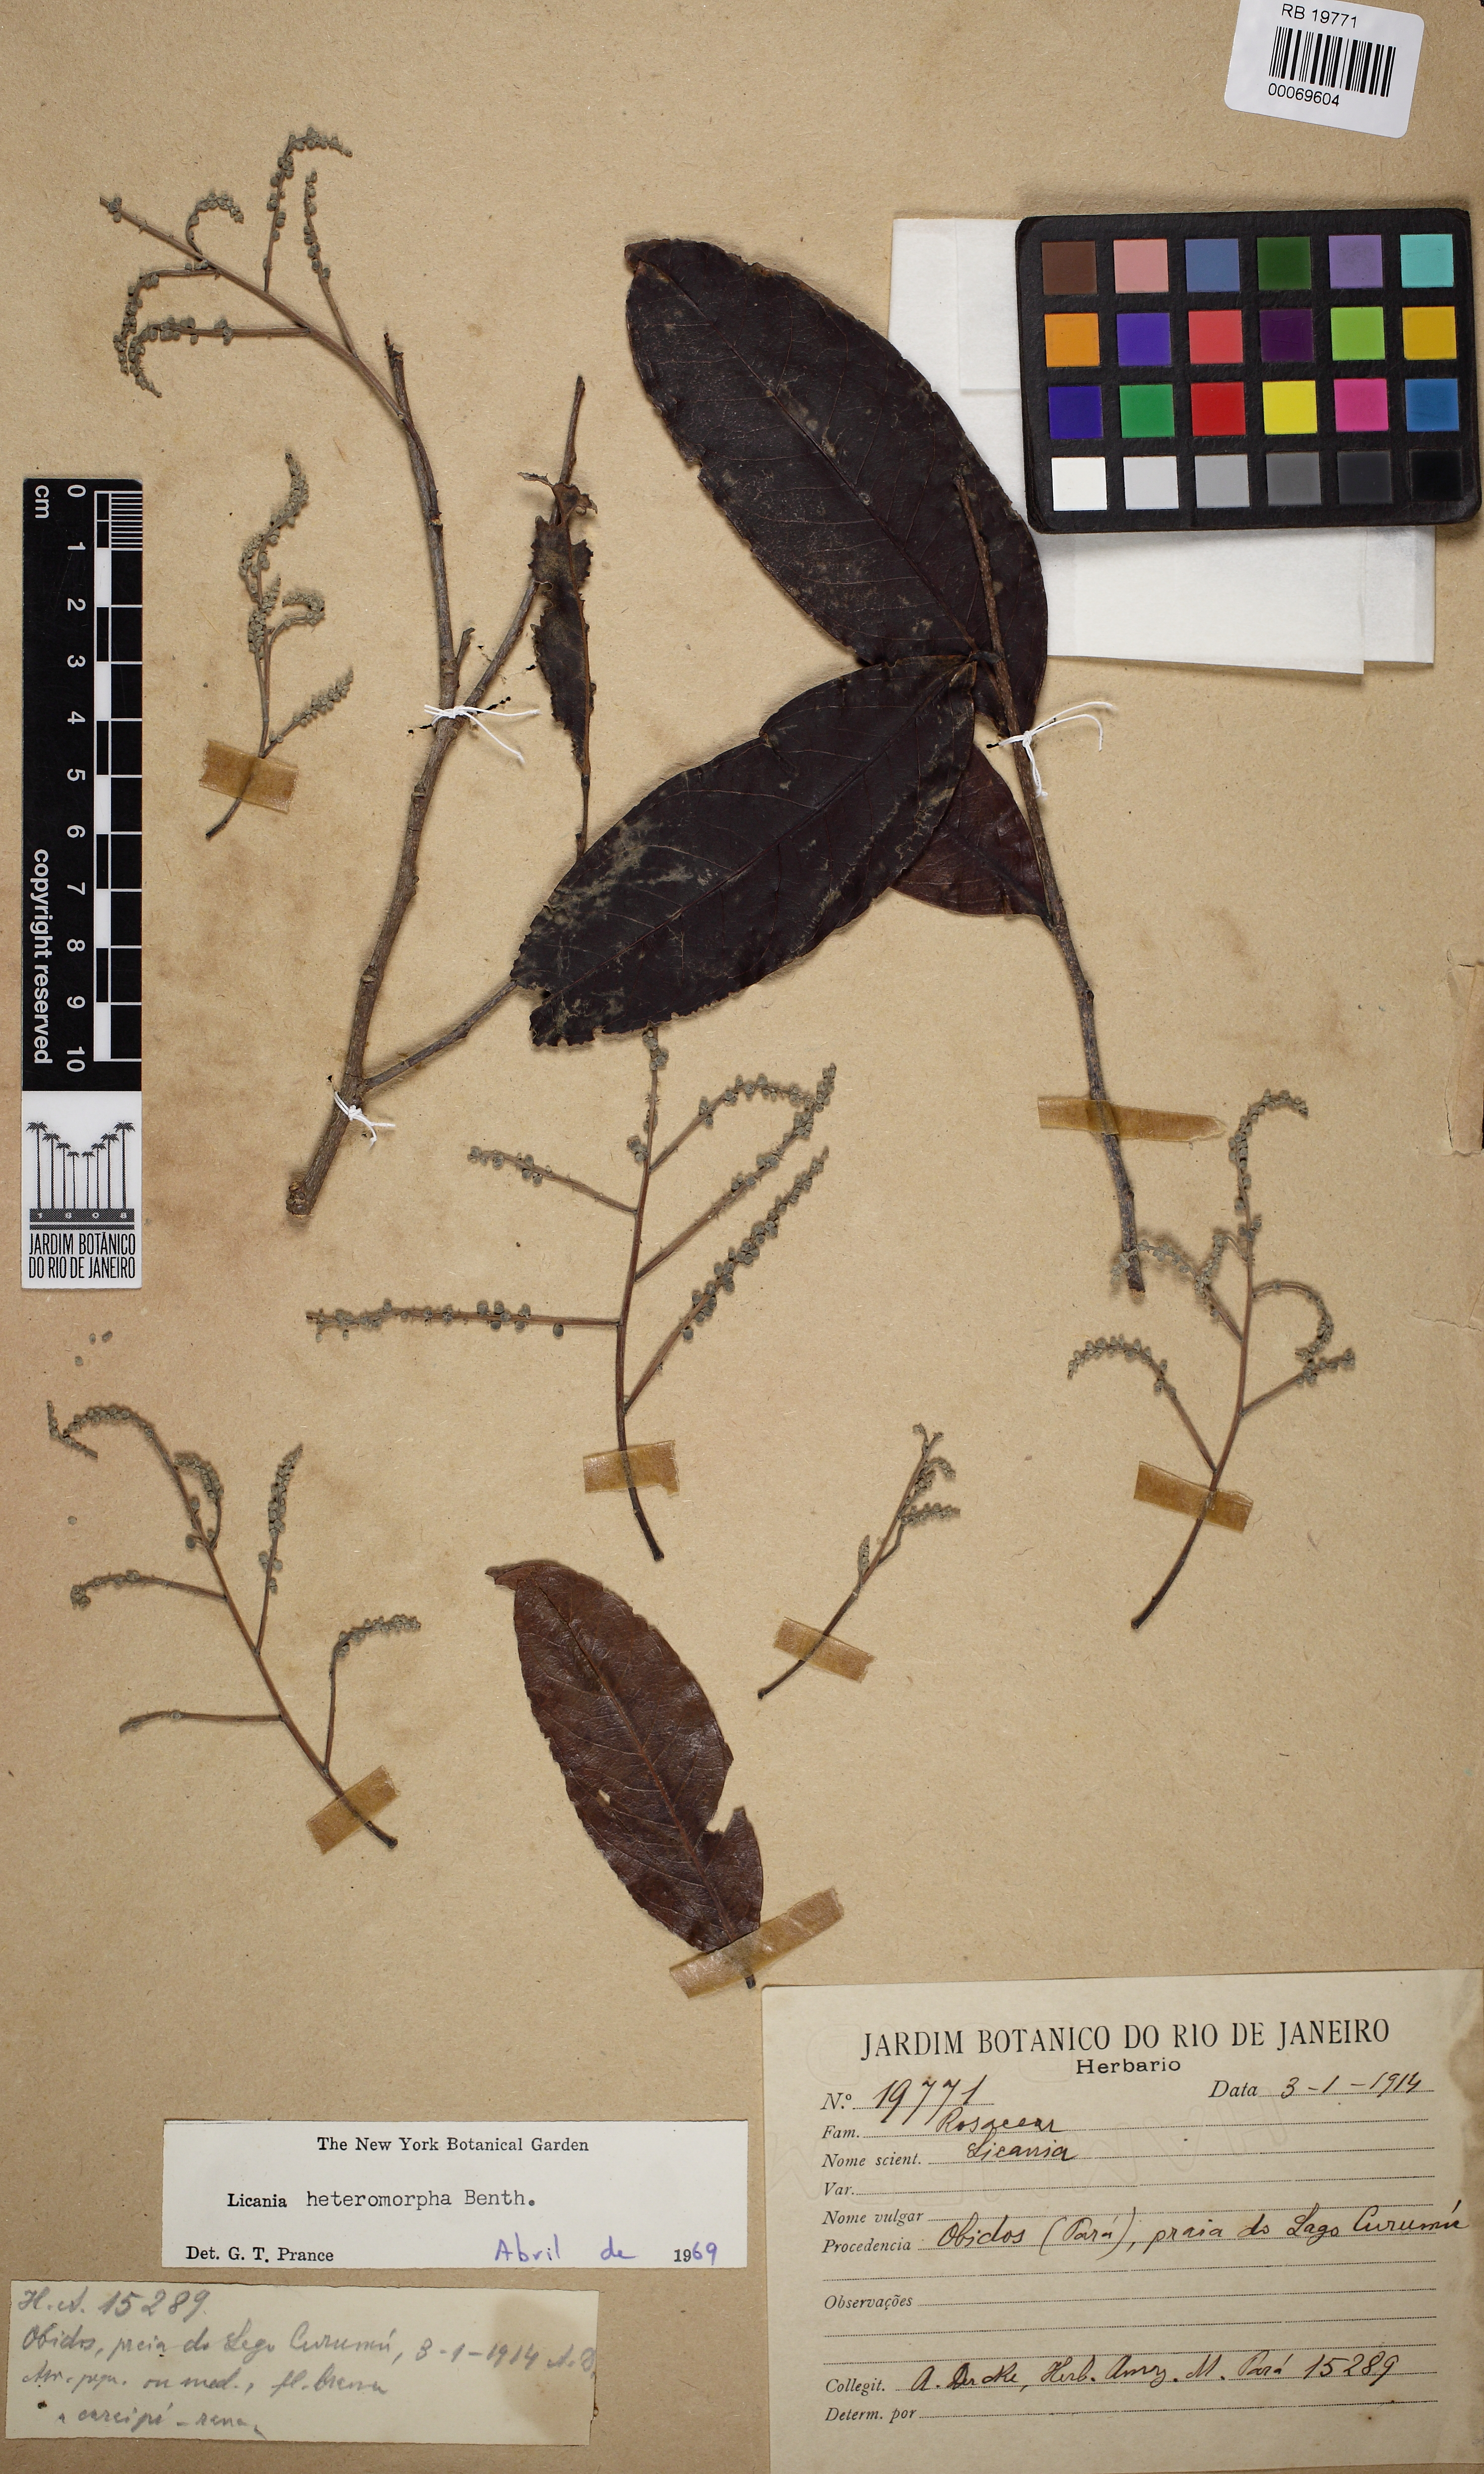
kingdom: Plantae
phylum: Tracheophyta
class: Magnoliopsida
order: Malpighiales
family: Chrysobalanaceae
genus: Hymenopus
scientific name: Hymenopus heteromorphus
